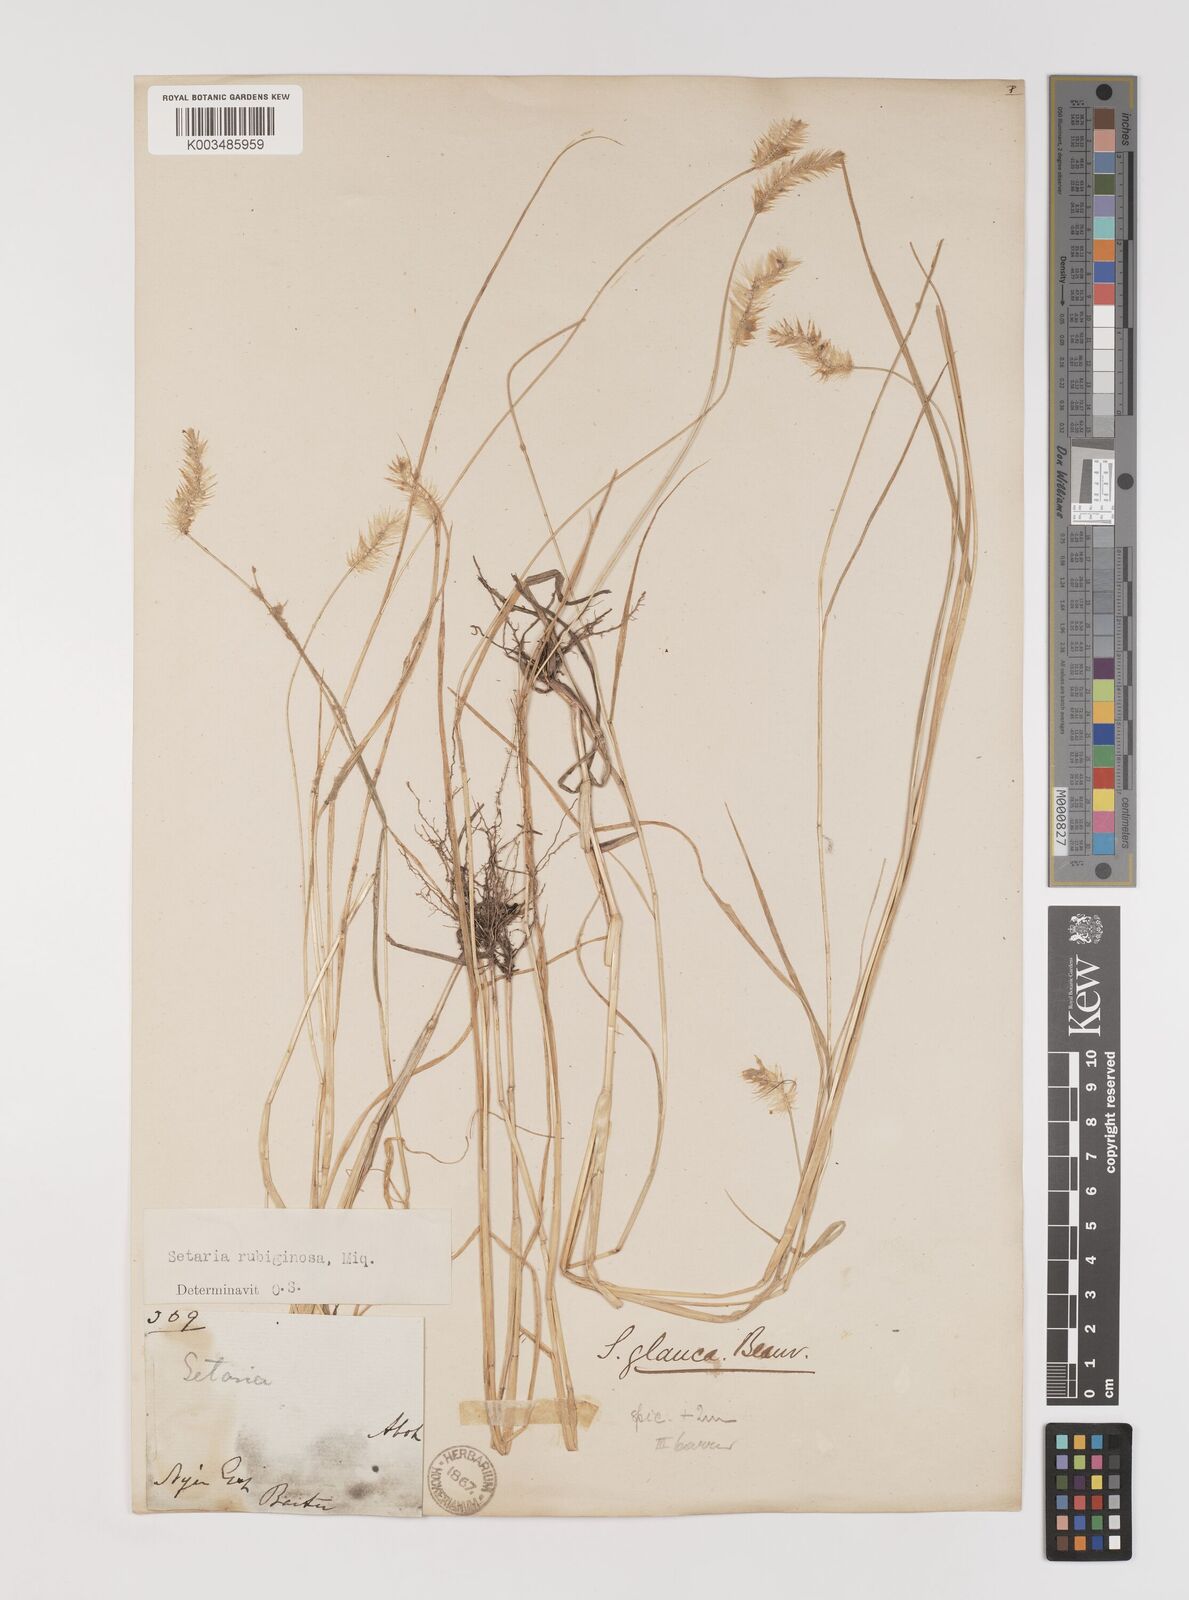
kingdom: Plantae
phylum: Tracheophyta
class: Liliopsida
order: Poales
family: Poaceae
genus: Setaria
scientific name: Setaria pumila
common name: Yellow bristle-grass
